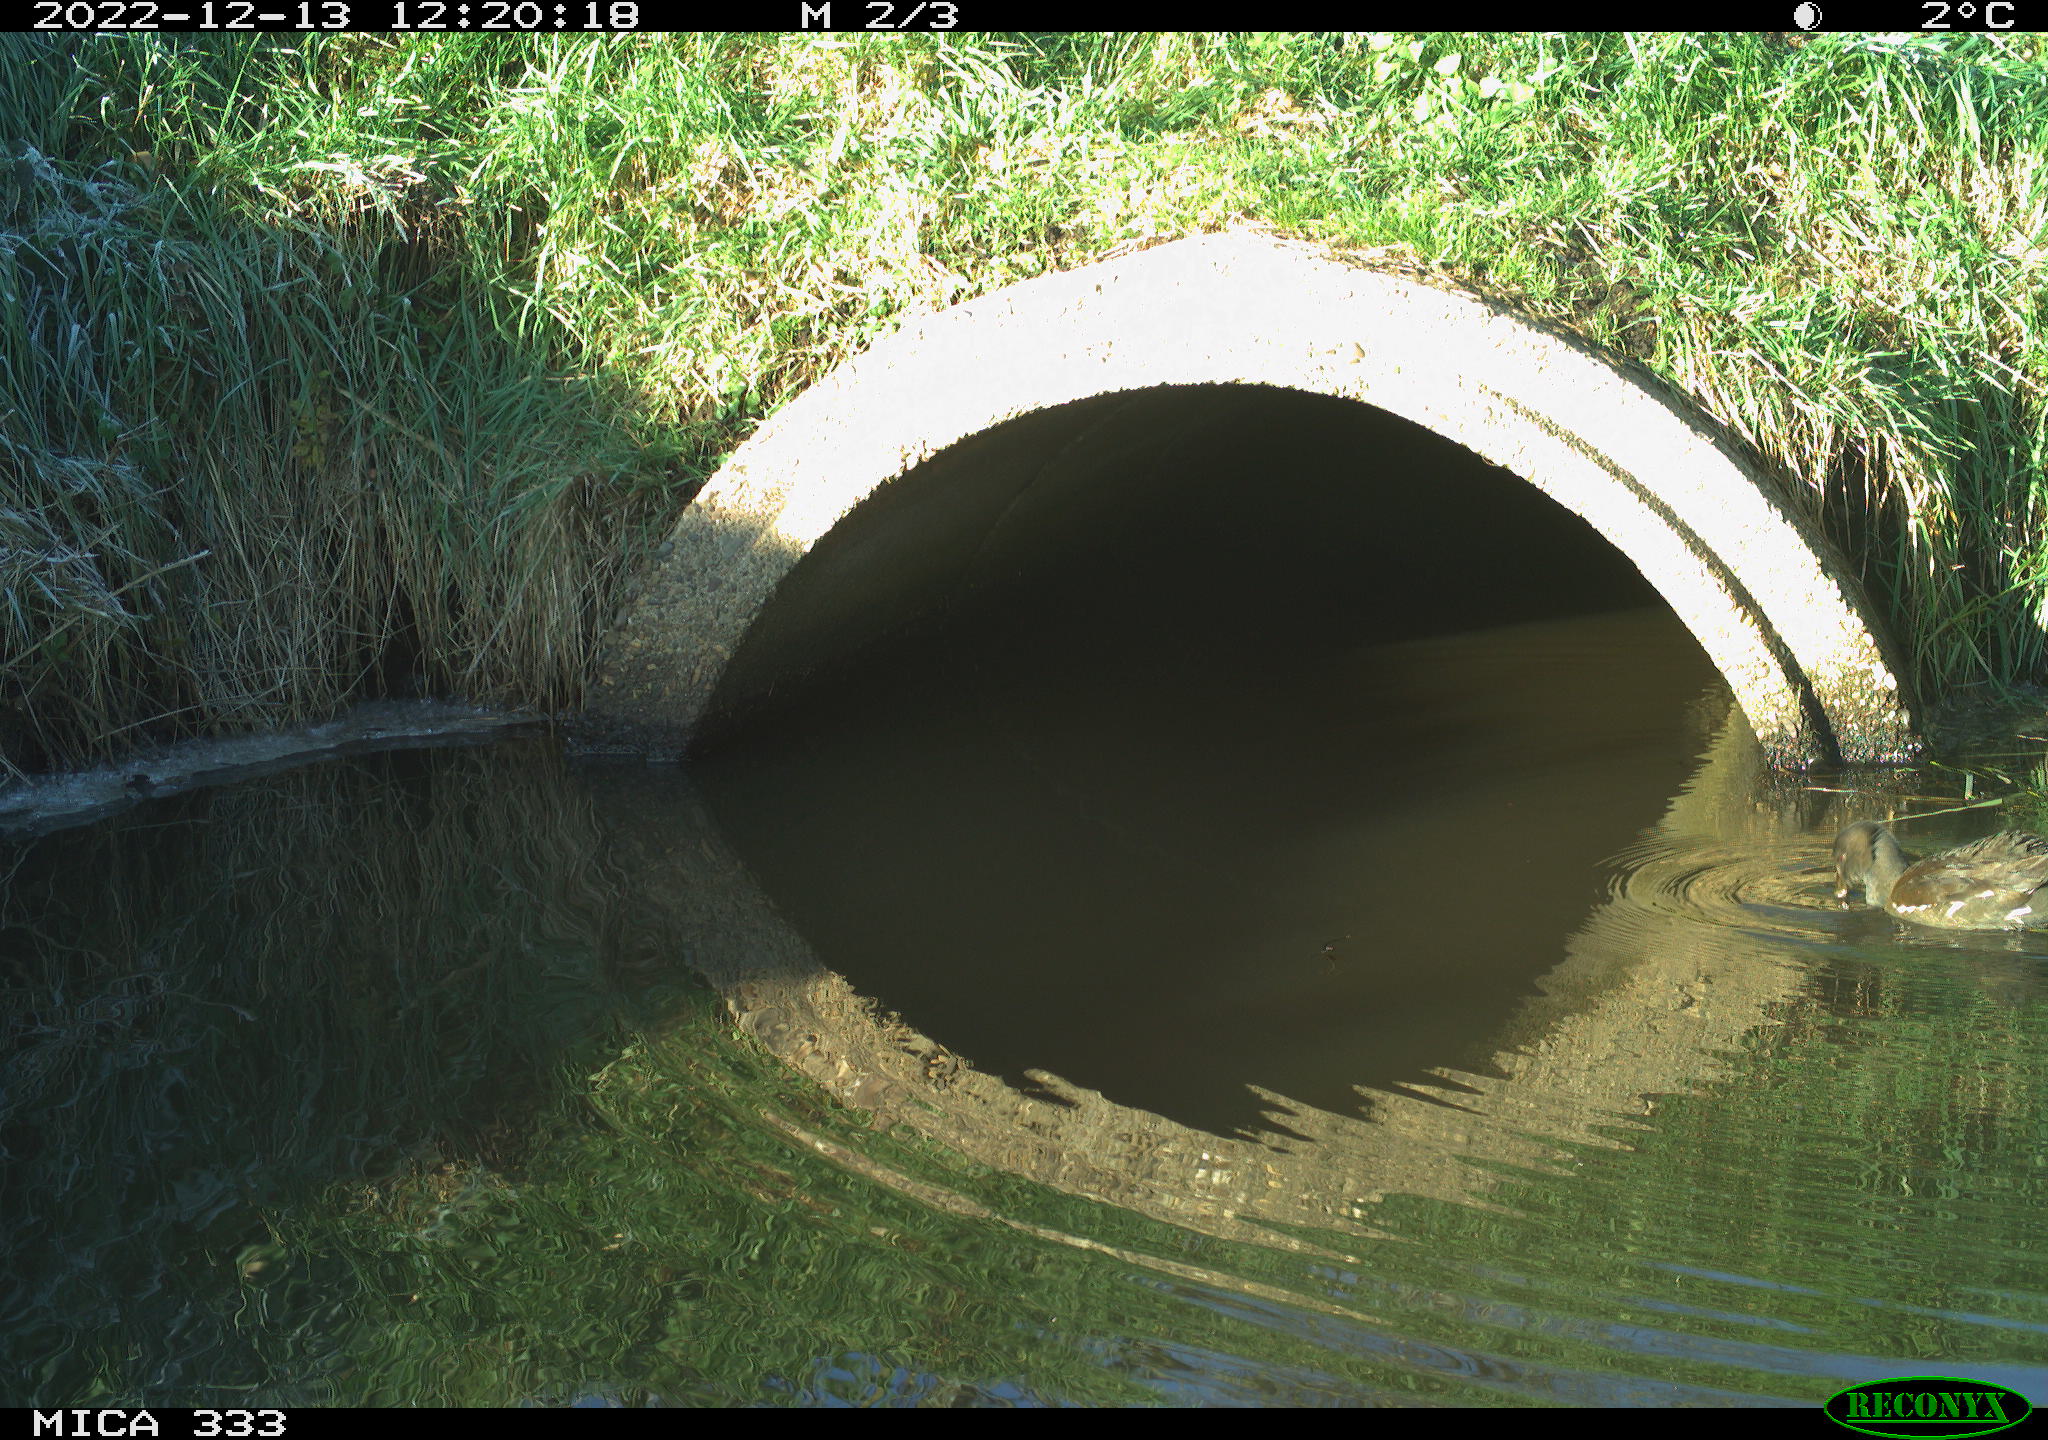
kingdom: Animalia
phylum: Chordata
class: Aves
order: Anseriformes
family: Anatidae
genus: Anas
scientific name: Anas
